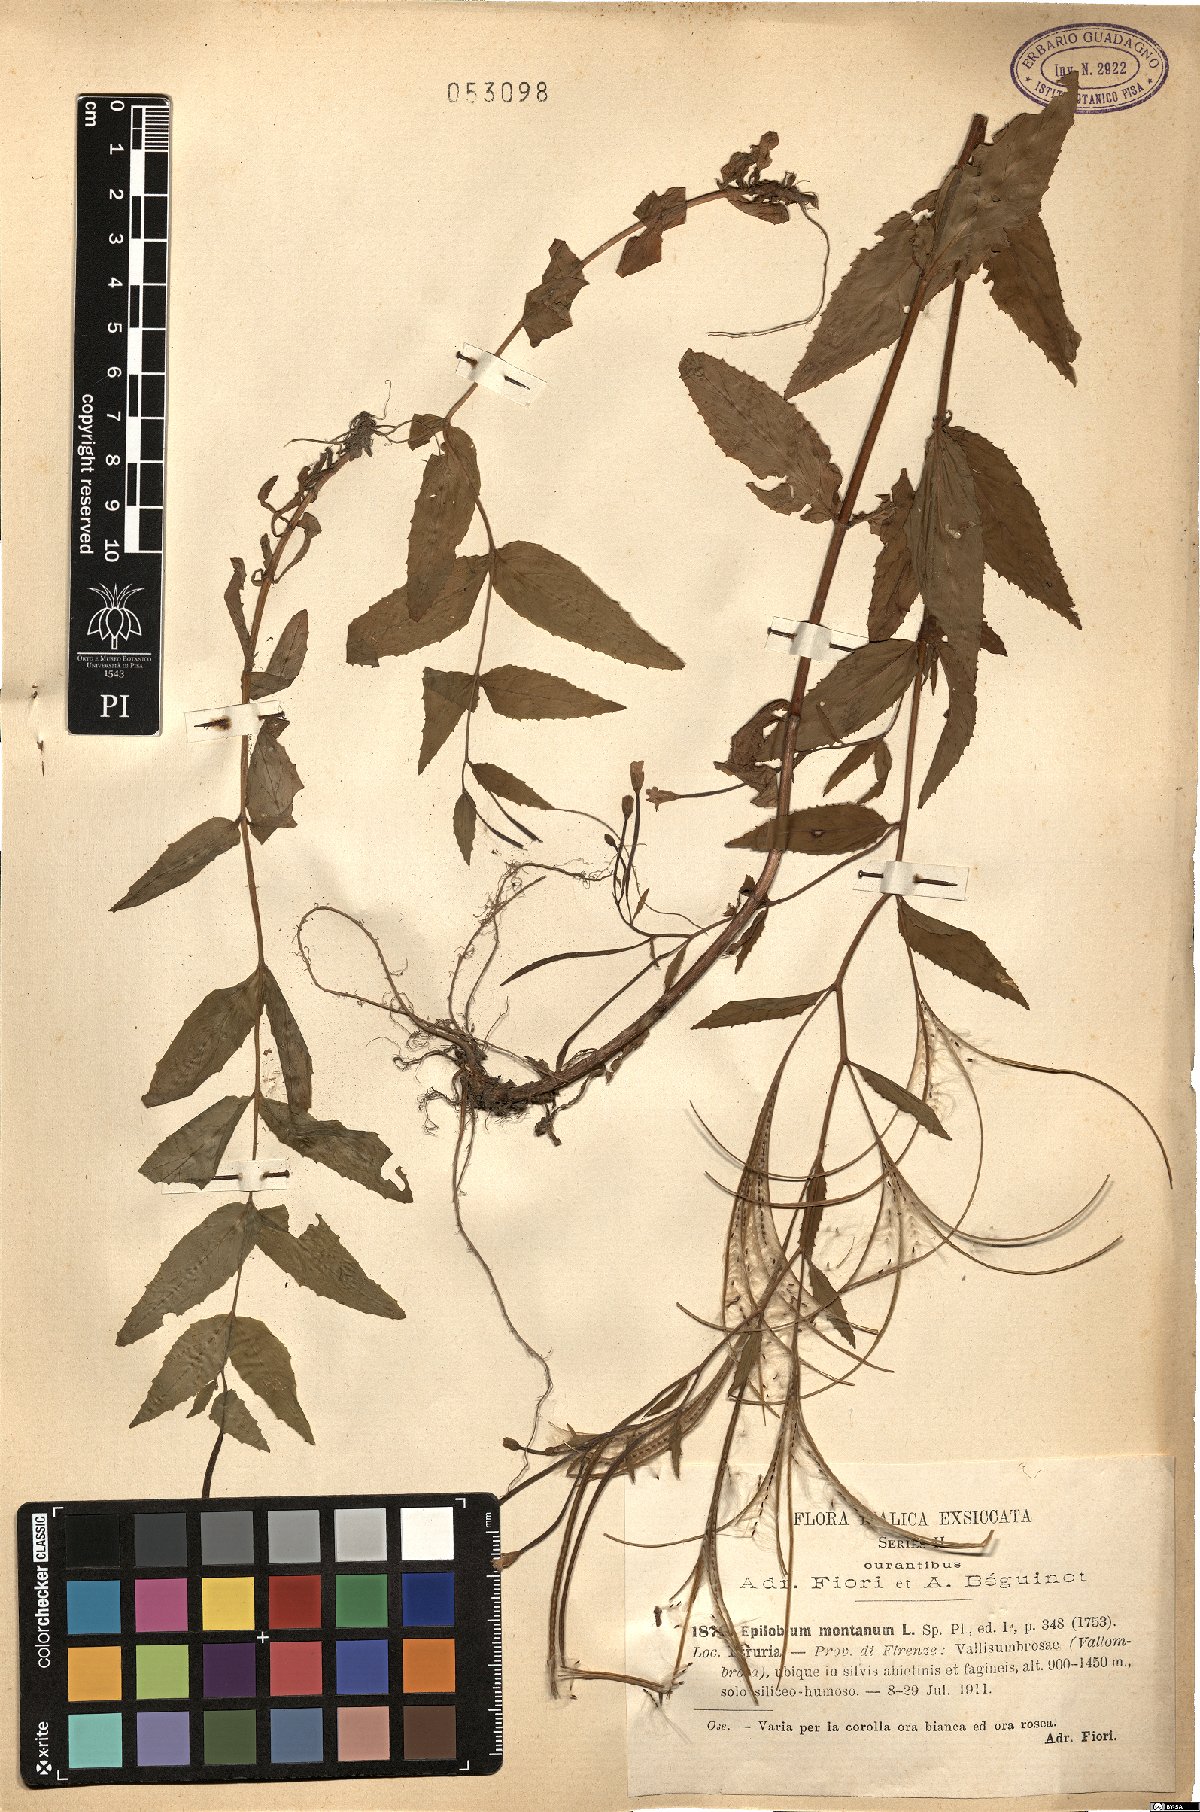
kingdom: Plantae
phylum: Tracheophyta
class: Magnoliopsida
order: Myrtales
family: Onagraceae
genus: Epilobium
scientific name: Epilobium montanum
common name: Broad-leaved willowherb
